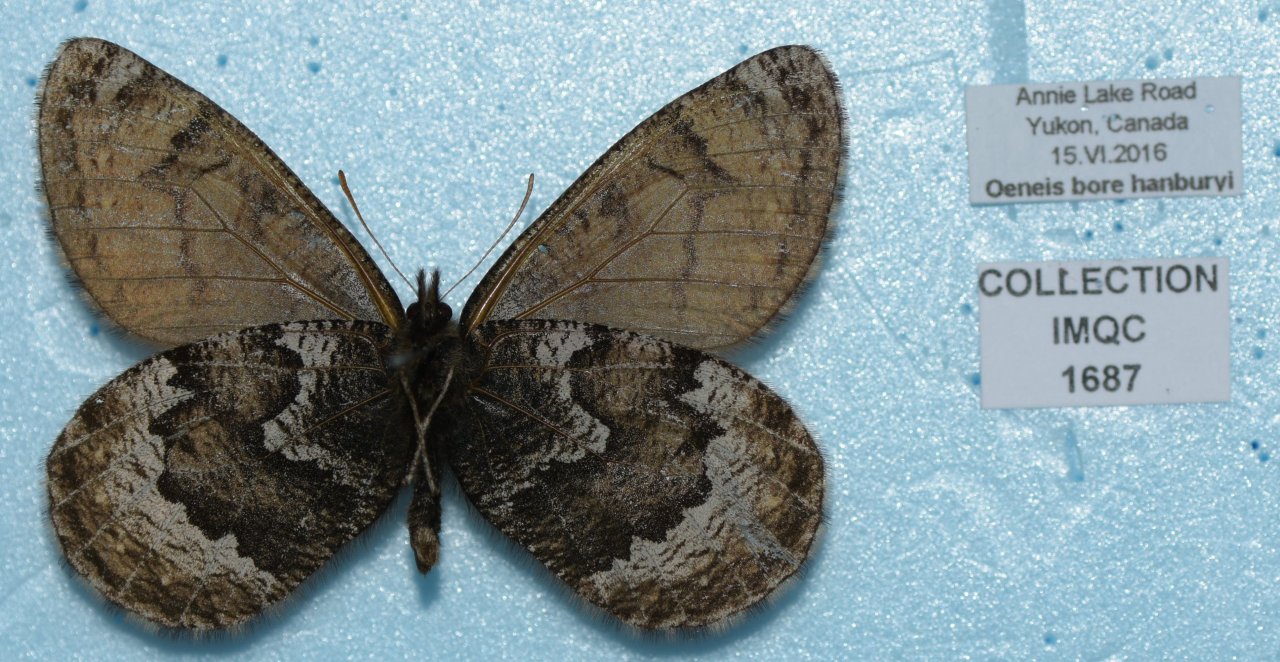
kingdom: Animalia
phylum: Arthropoda
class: Insecta
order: Lepidoptera
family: Nymphalidae
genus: Oeneis
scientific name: Oeneis bore
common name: White-veined Arctic
